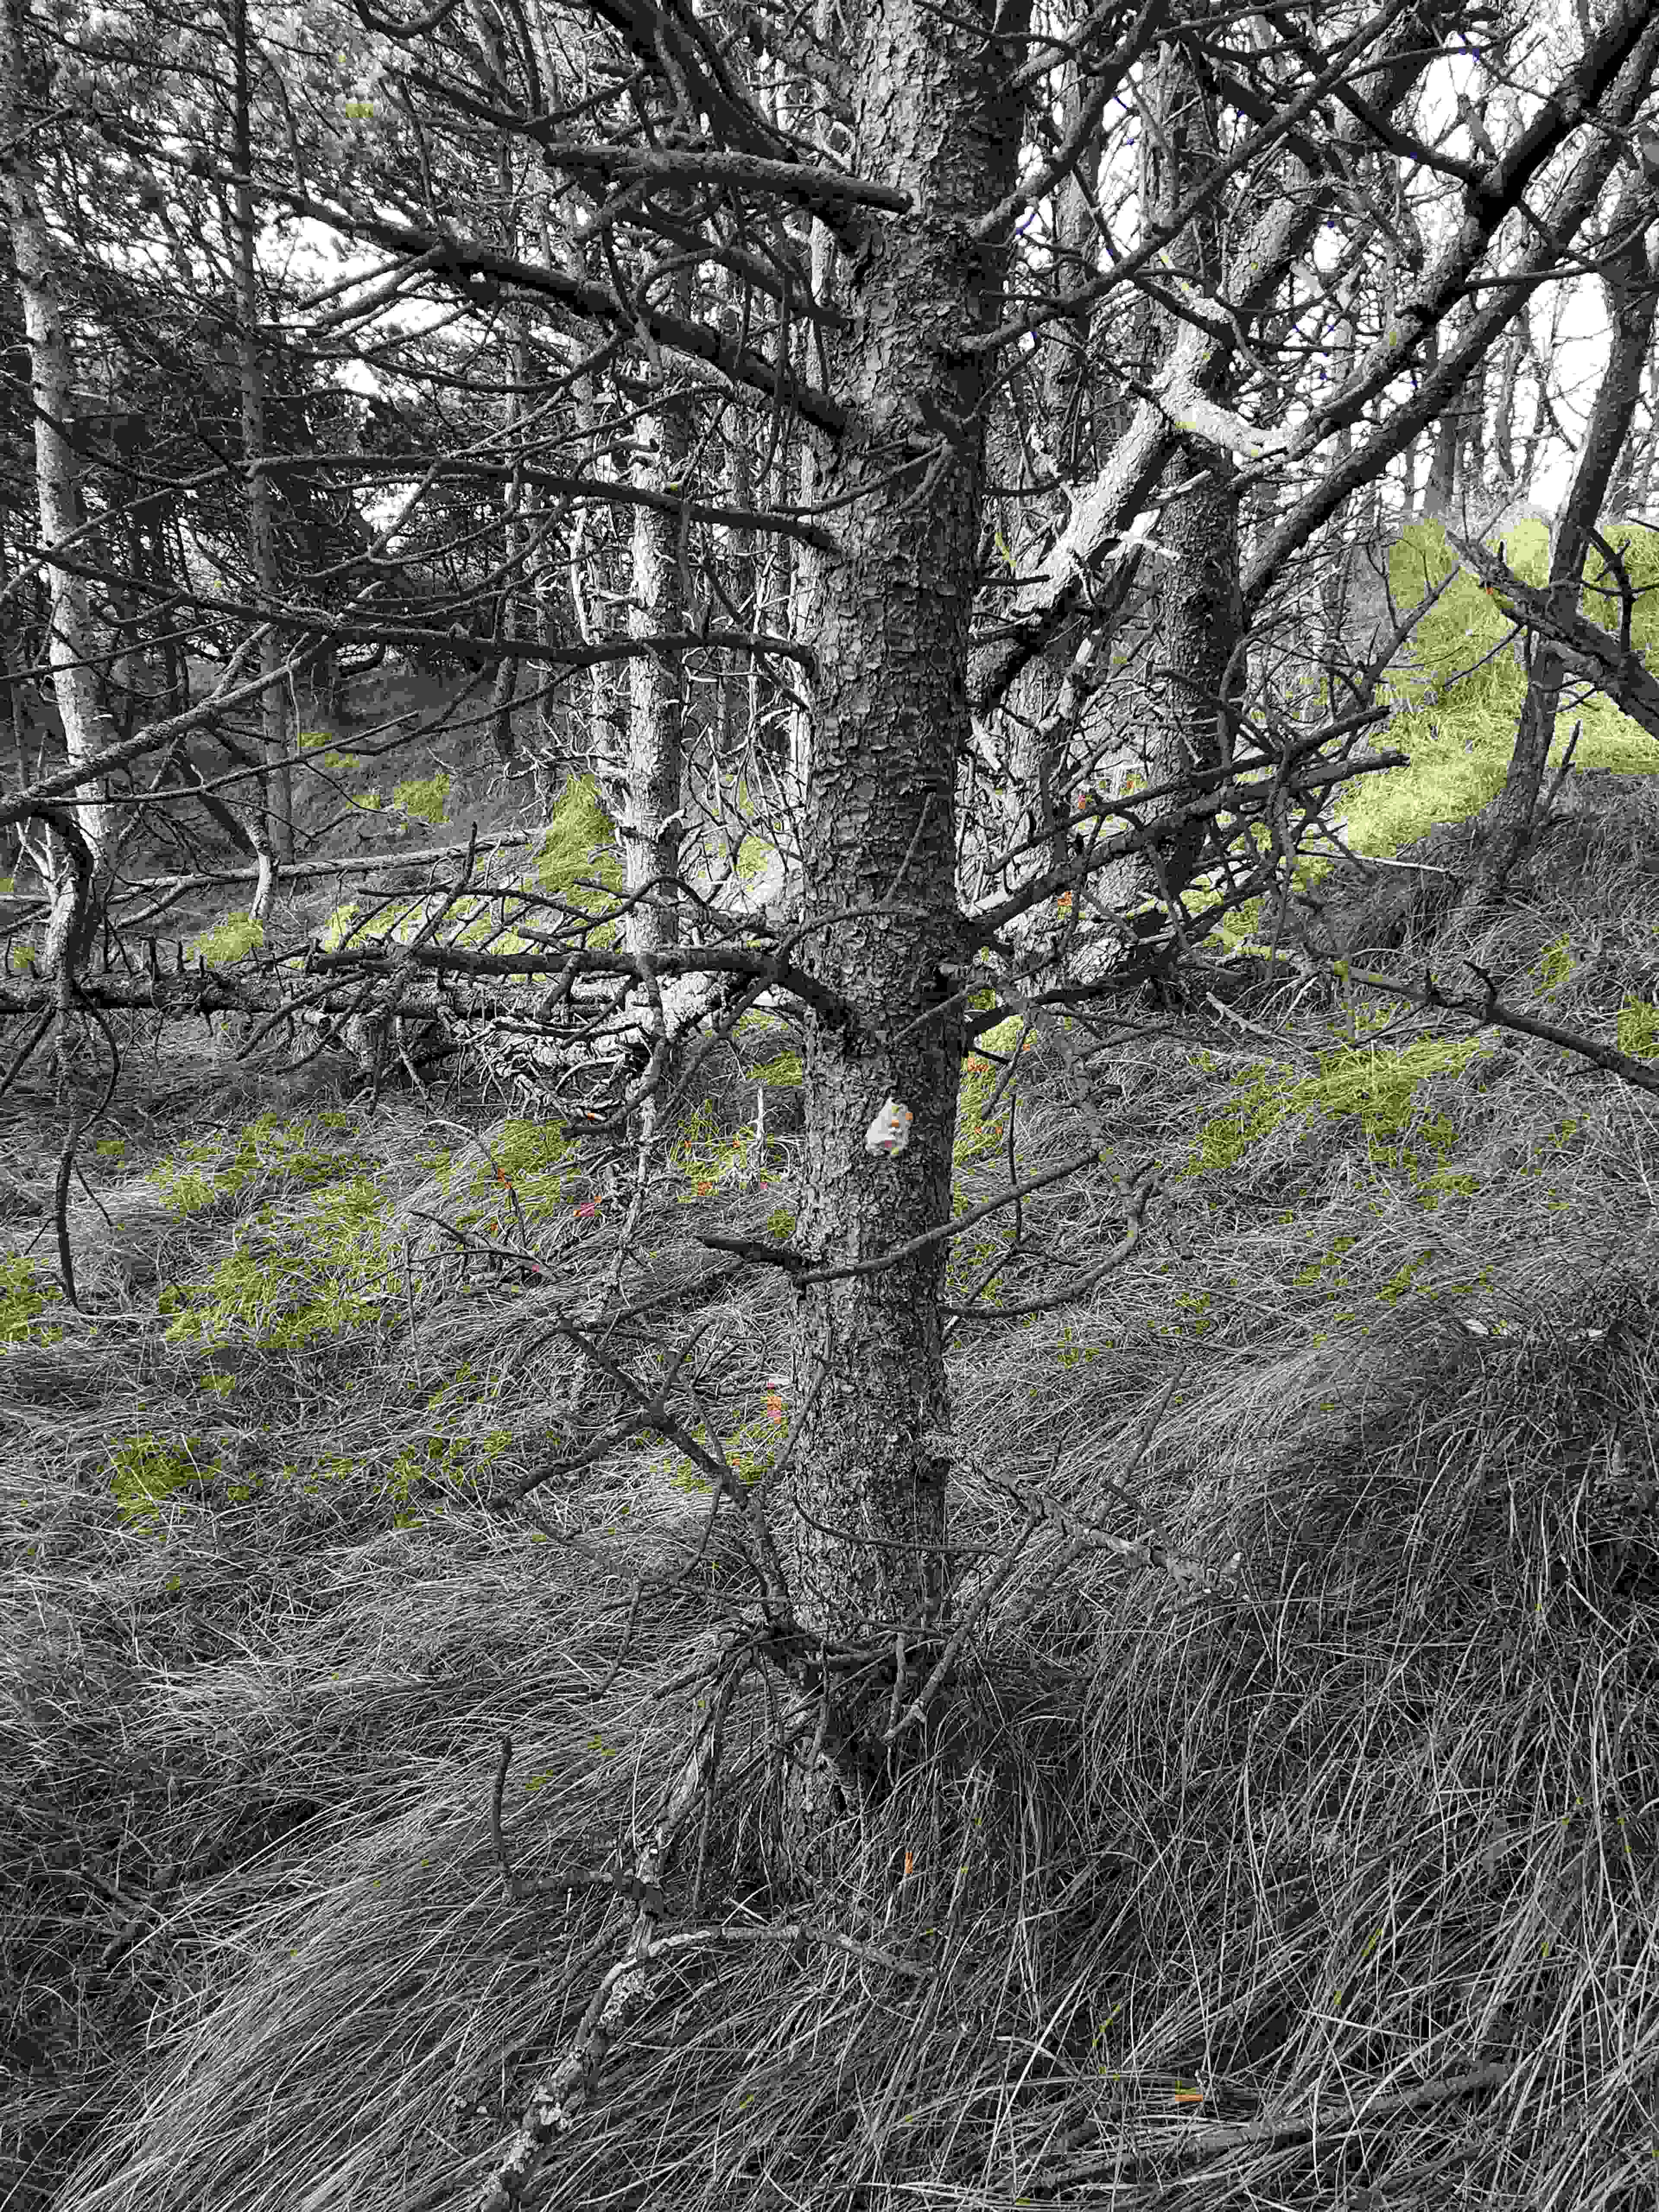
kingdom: Fungi
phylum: Basidiomycota
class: Agaricomycetes
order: Polyporales
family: Polyporaceae
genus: Diplomitoporus
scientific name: Diplomitoporus flavescens
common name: fyrre-elastikporesvamp
